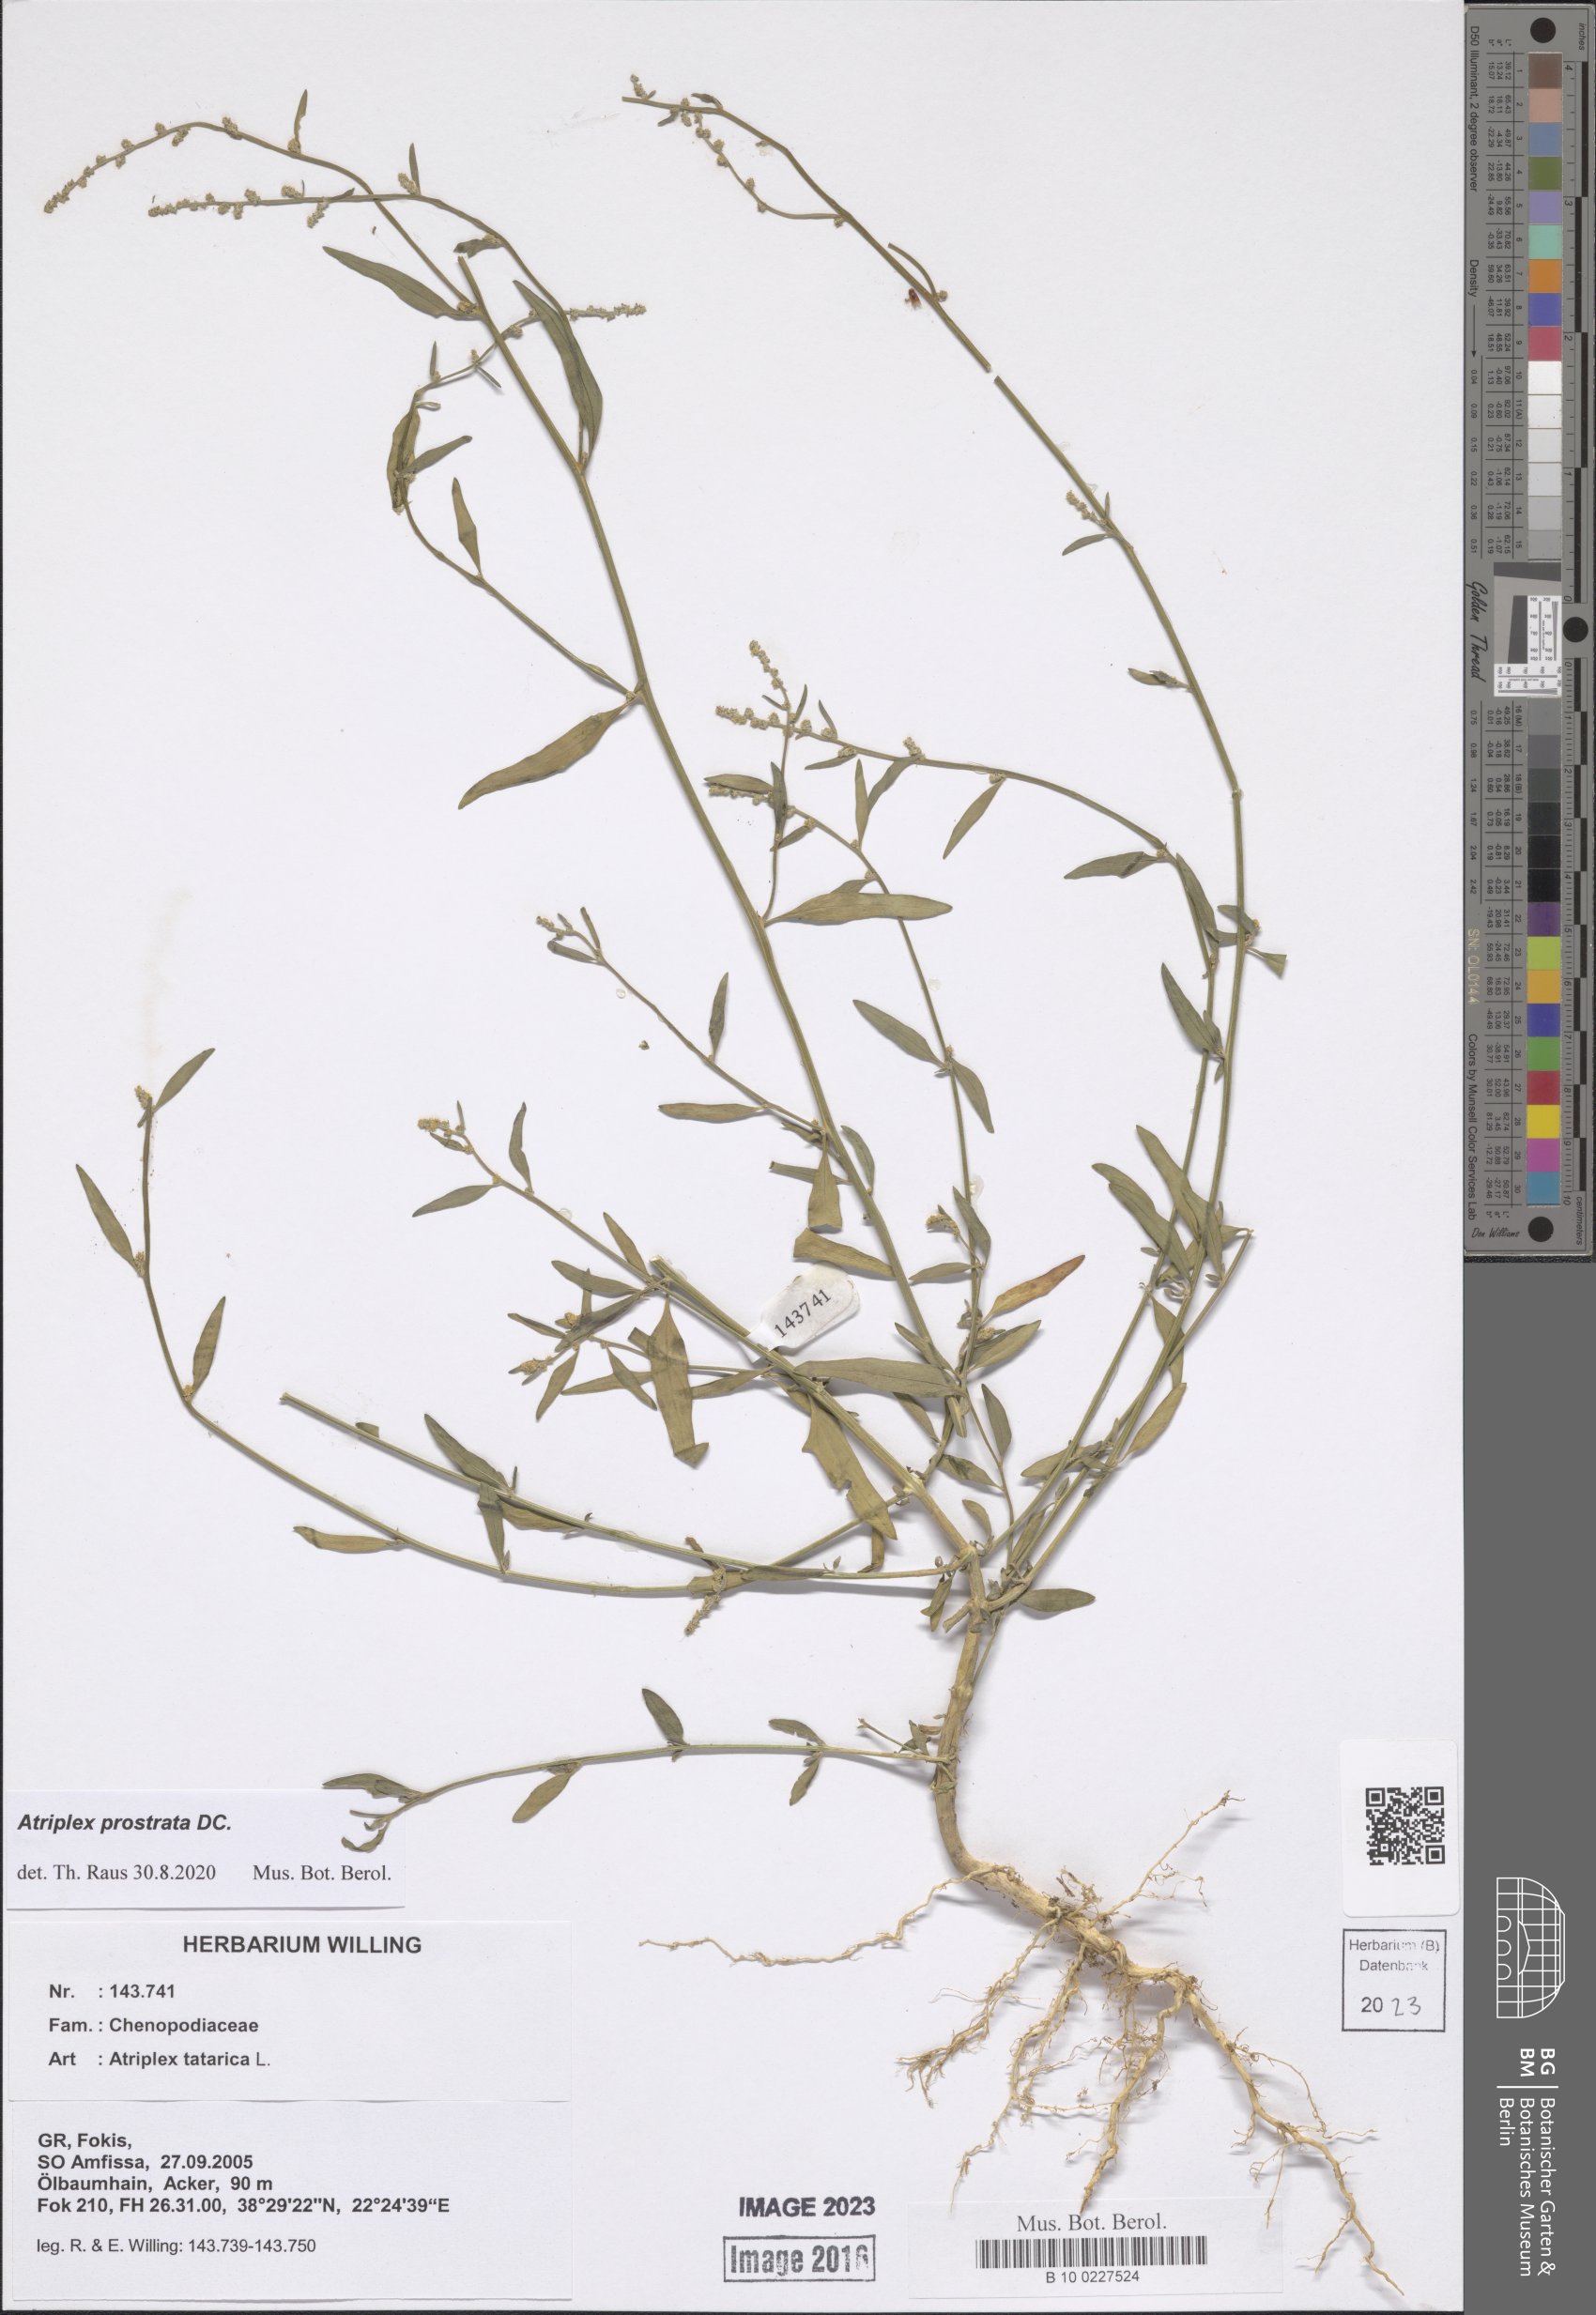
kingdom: Plantae
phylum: Tracheophyta
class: Magnoliopsida
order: Caryophyllales
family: Amaranthaceae
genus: Atriplex
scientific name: Atriplex prostrata
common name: Spear-leaved orache
